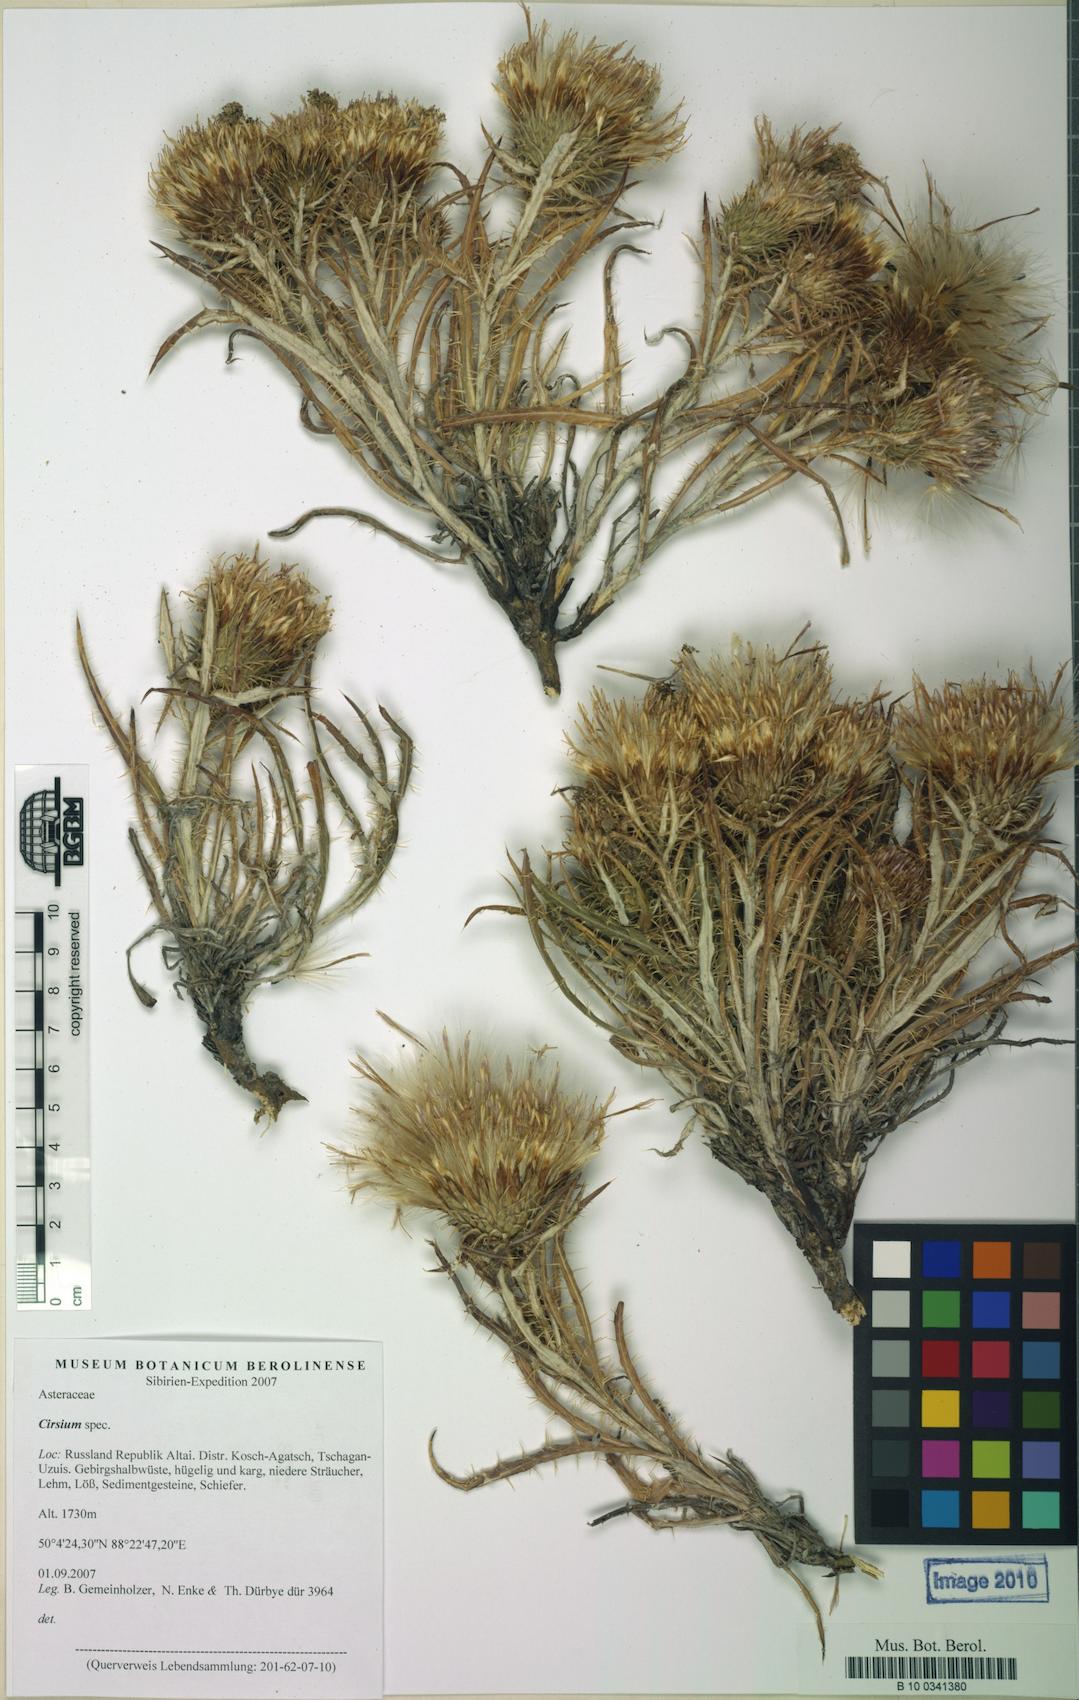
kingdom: Plantae
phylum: Tracheophyta
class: Magnoliopsida
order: Asterales
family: Asteraceae
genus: Ancathia
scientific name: Ancathia igniaria
